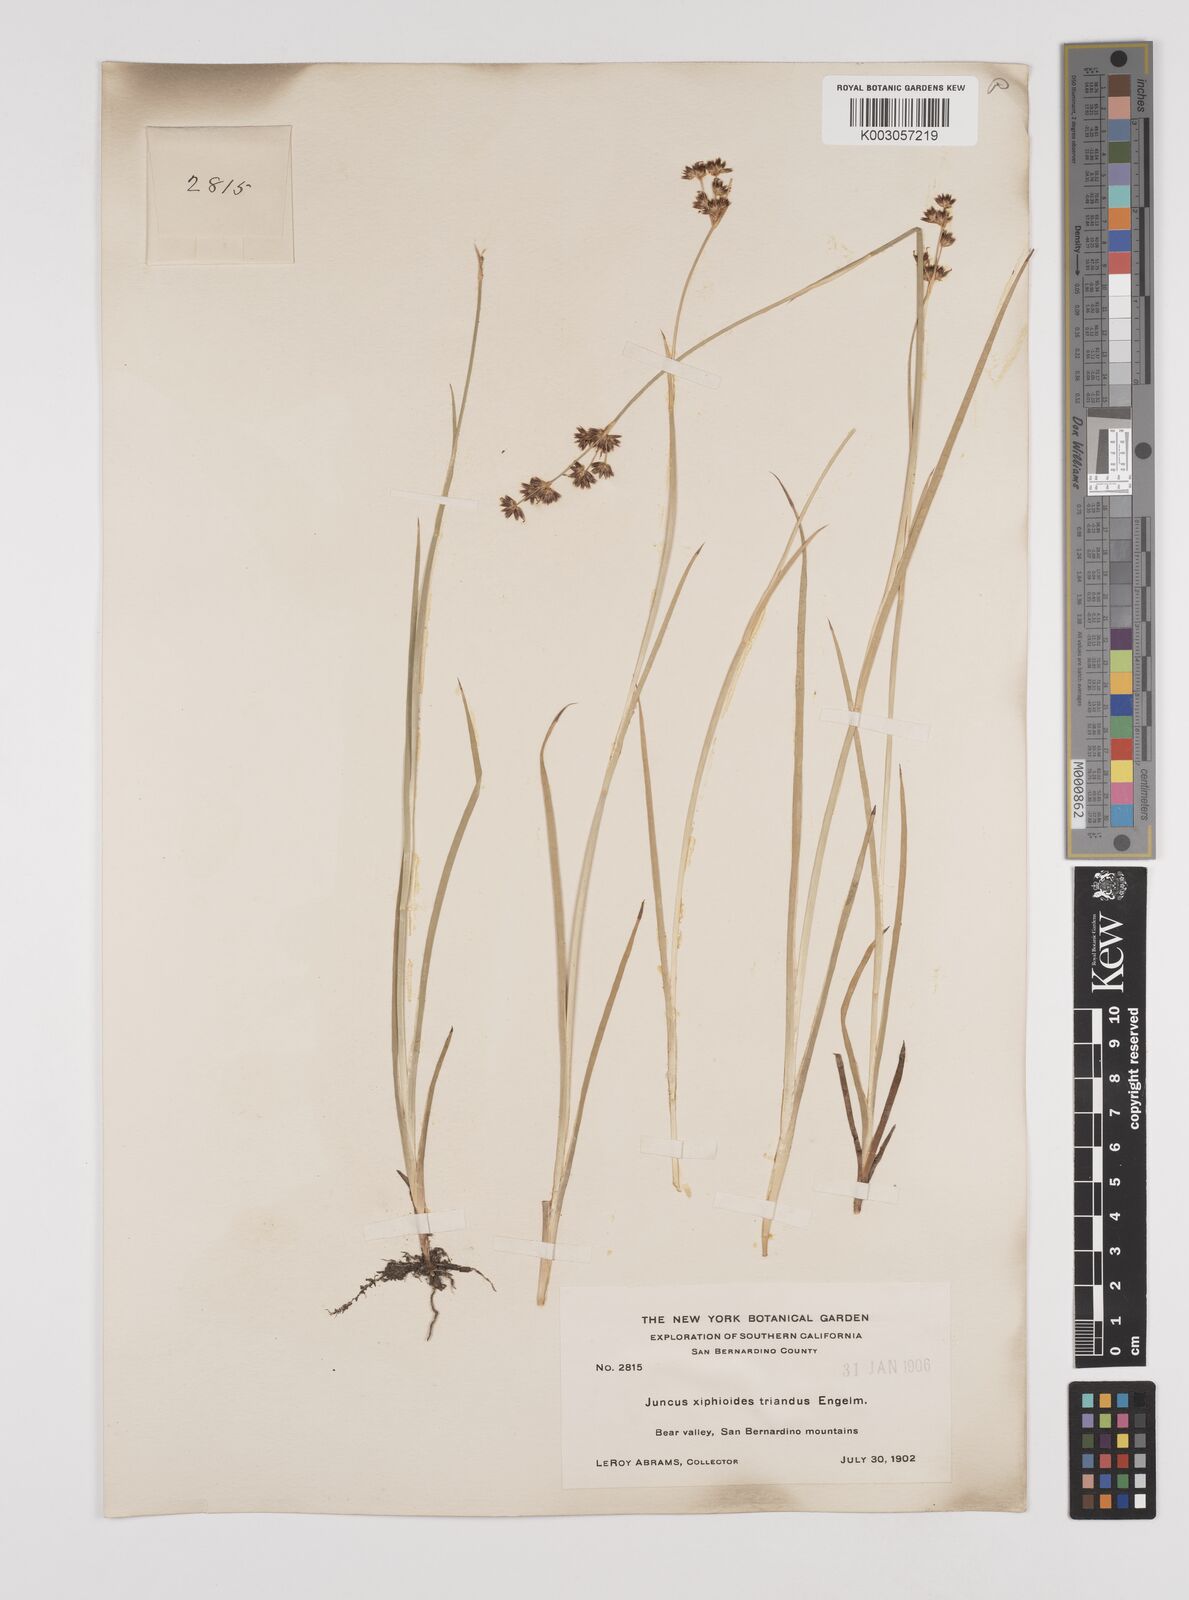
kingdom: Plantae
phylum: Tracheophyta
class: Liliopsida
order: Poales
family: Juncaceae
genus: Juncus
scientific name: Juncus ensifolius
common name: Sword-leaved rush
